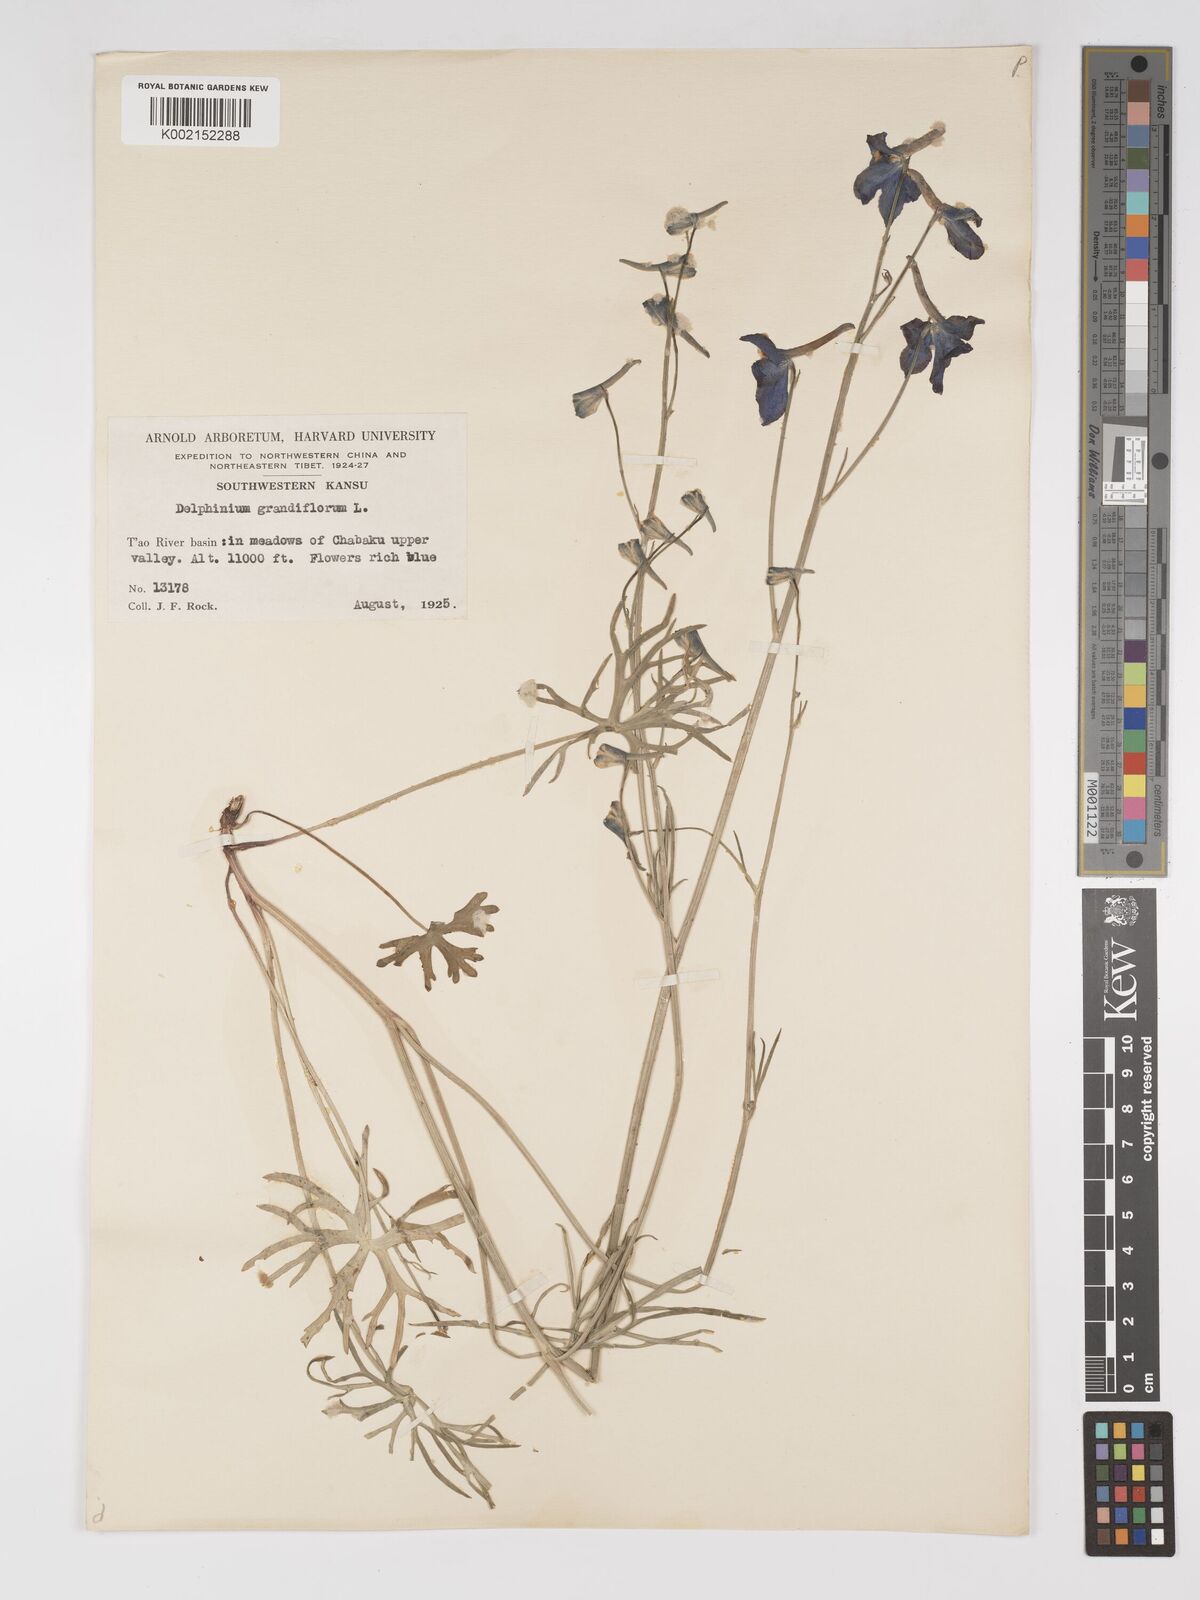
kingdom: Plantae
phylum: Tracheophyta
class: Magnoliopsida
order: Ranunculales
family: Ranunculaceae
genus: Delphinium
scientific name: Delphinium grandiflorum
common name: Siberian larkspur
